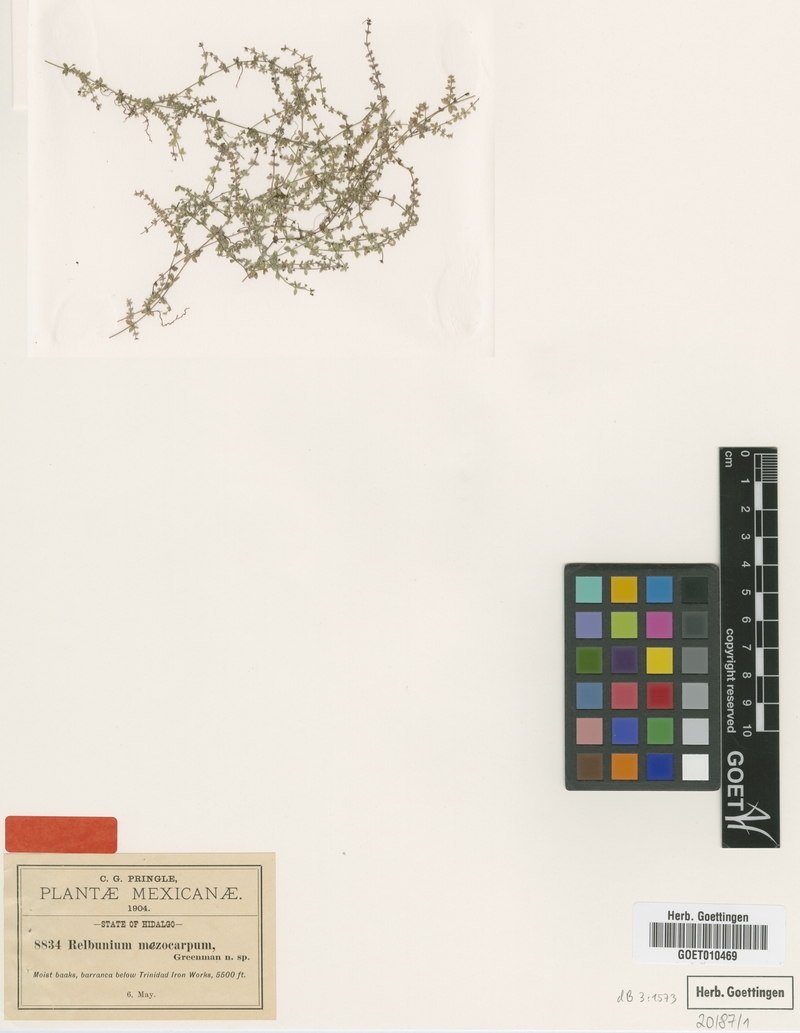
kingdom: Plantae
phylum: Tracheophyta
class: Magnoliopsida
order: Gentianales
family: Rubiaceae
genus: Galium
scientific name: Galium sphagnophilum
